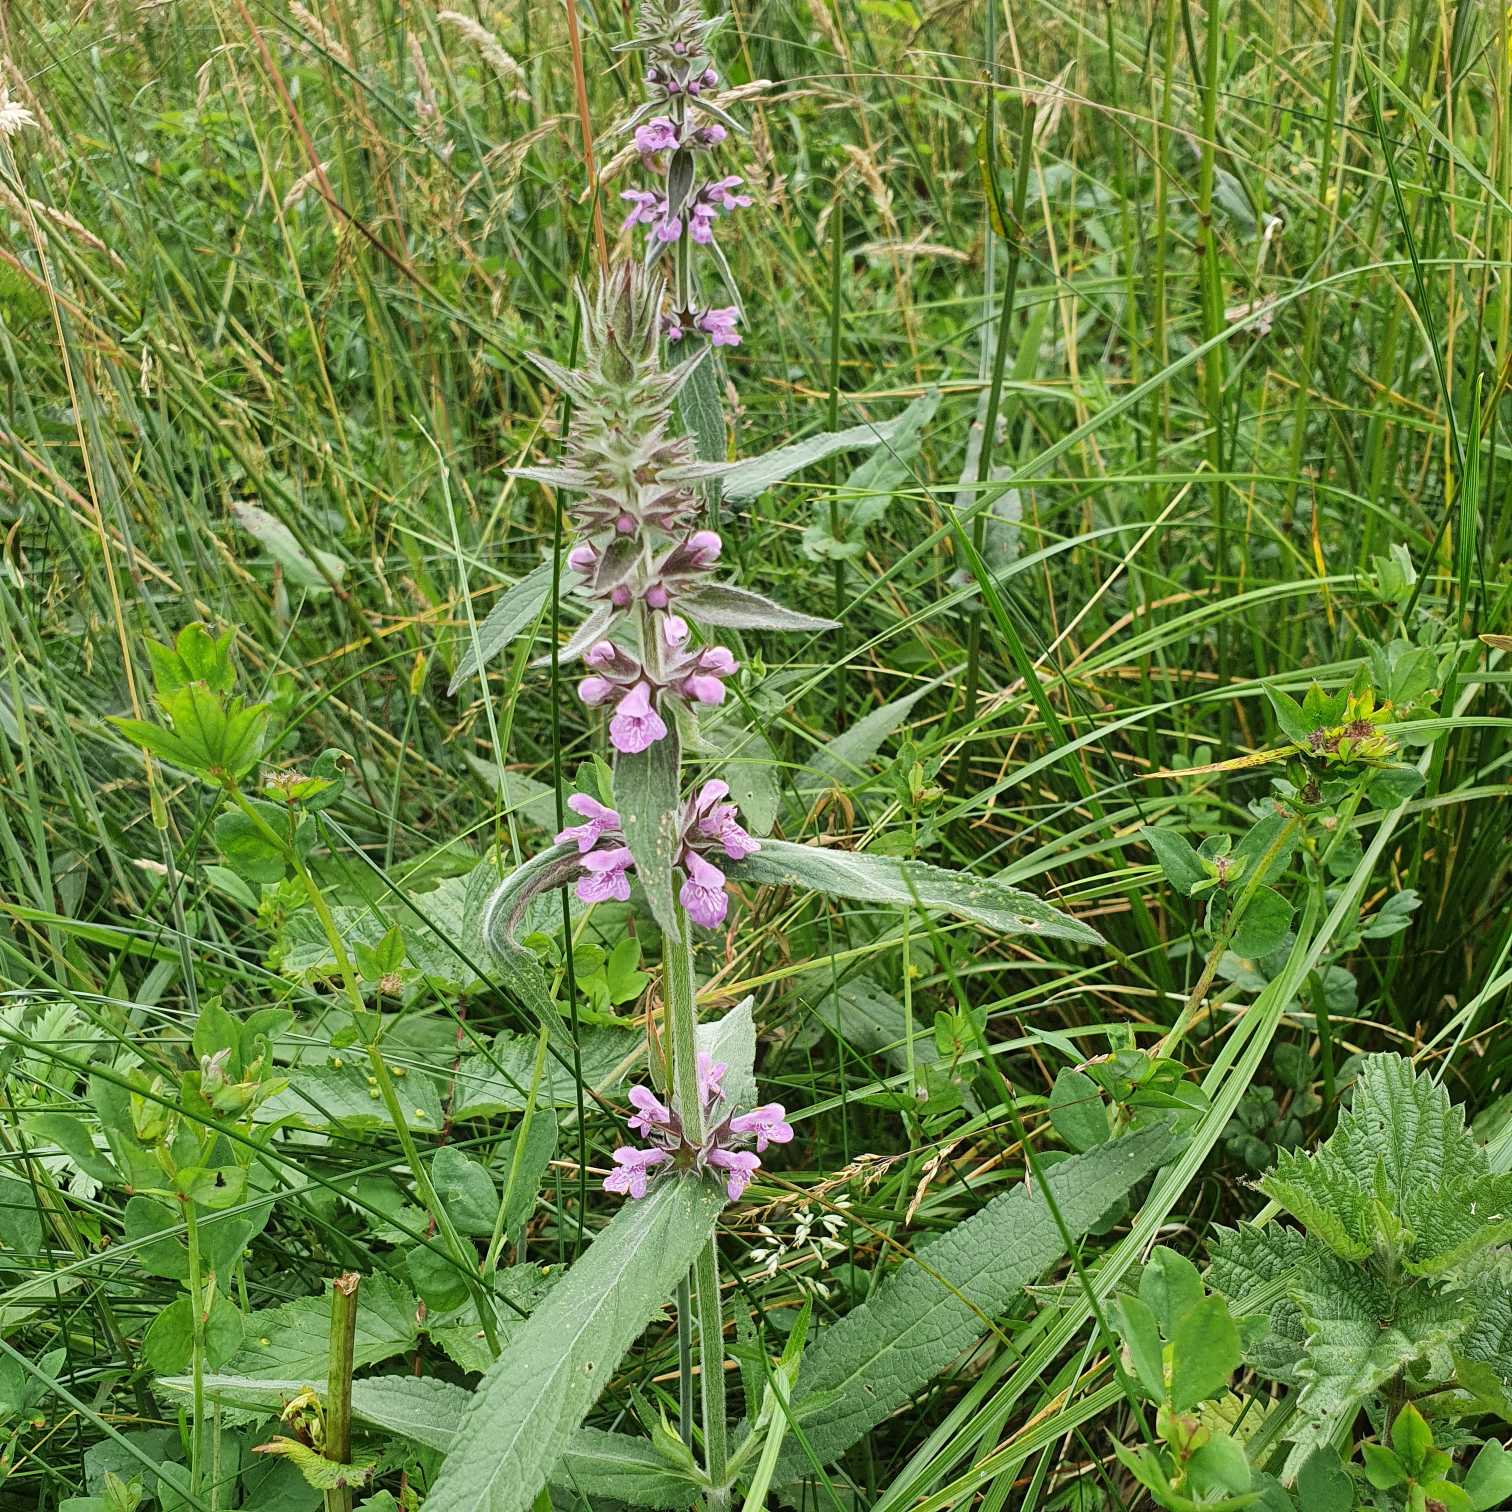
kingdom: Plantae
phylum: Tracheophyta
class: Magnoliopsida
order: Lamiales
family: Lamiaceae
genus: Stachys
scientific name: Stachys palustris
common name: Kær-galtetand
